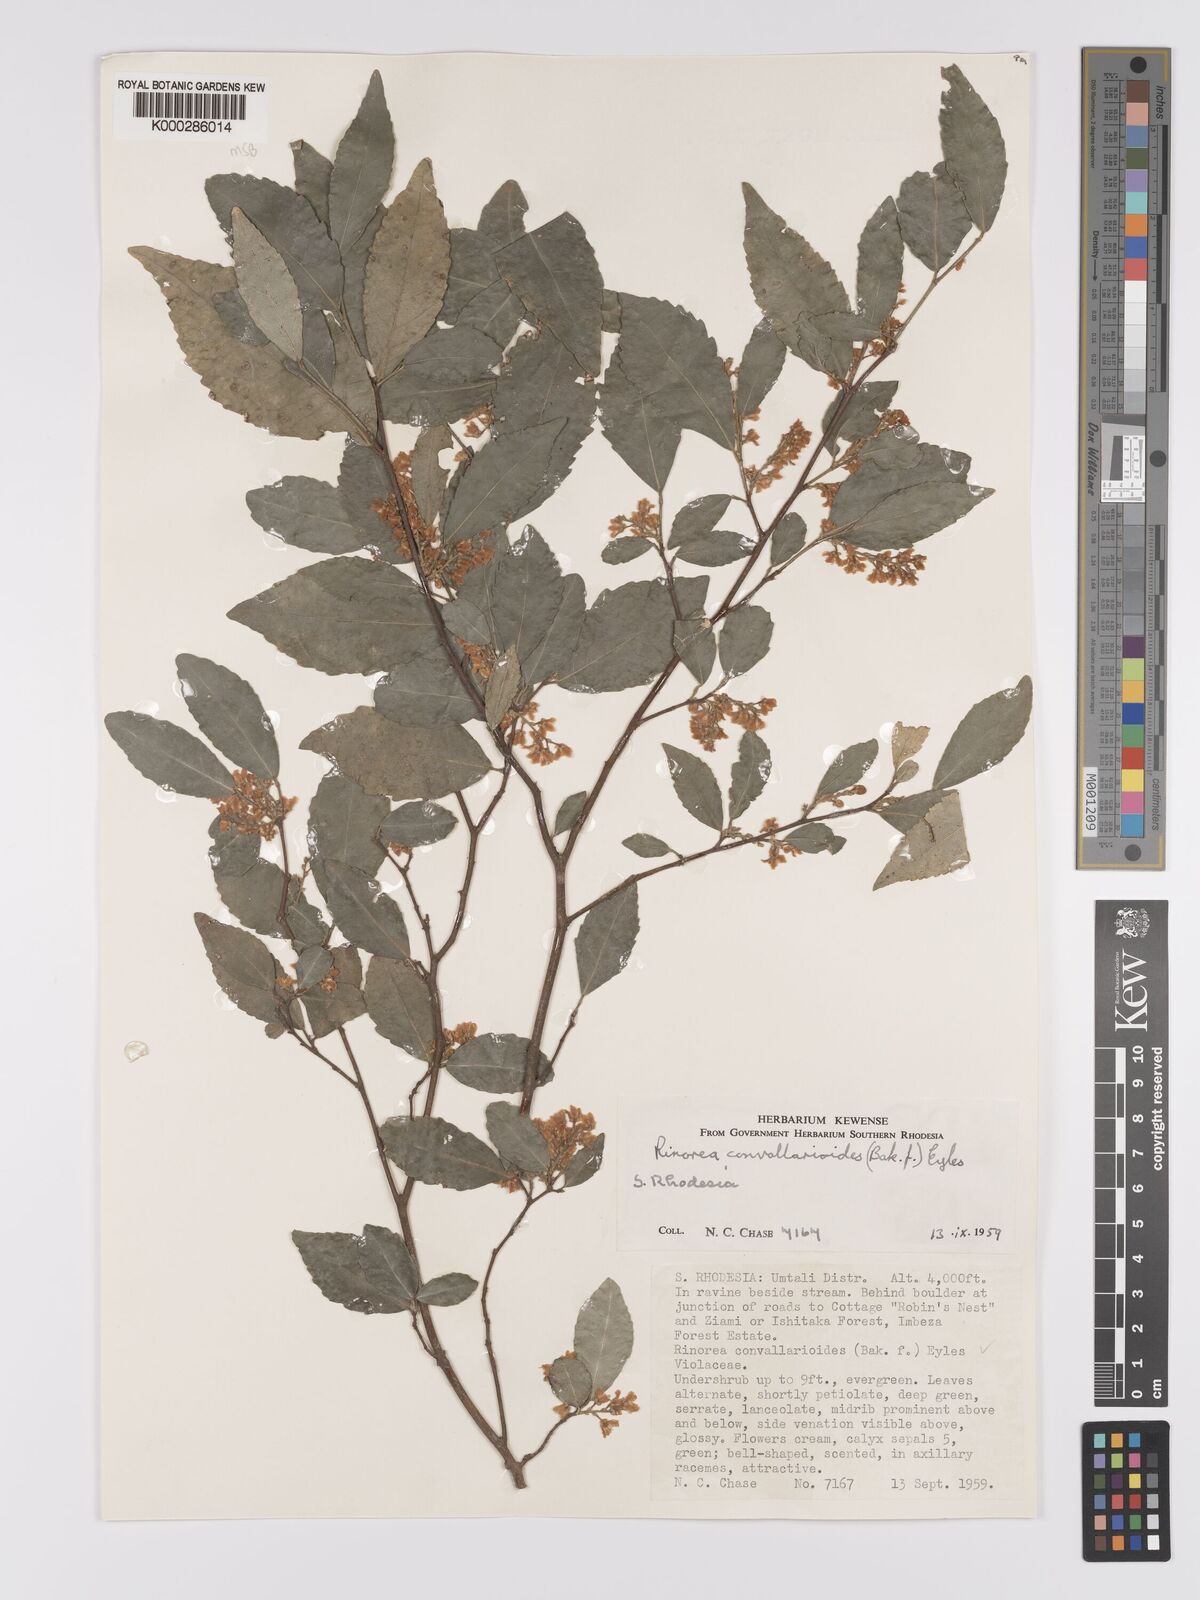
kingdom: Plantae
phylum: Tracheophyta
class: Magnoliopsida
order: Malpighiales
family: Violaceae
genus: Rinorea
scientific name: Rinorea convallarioides
